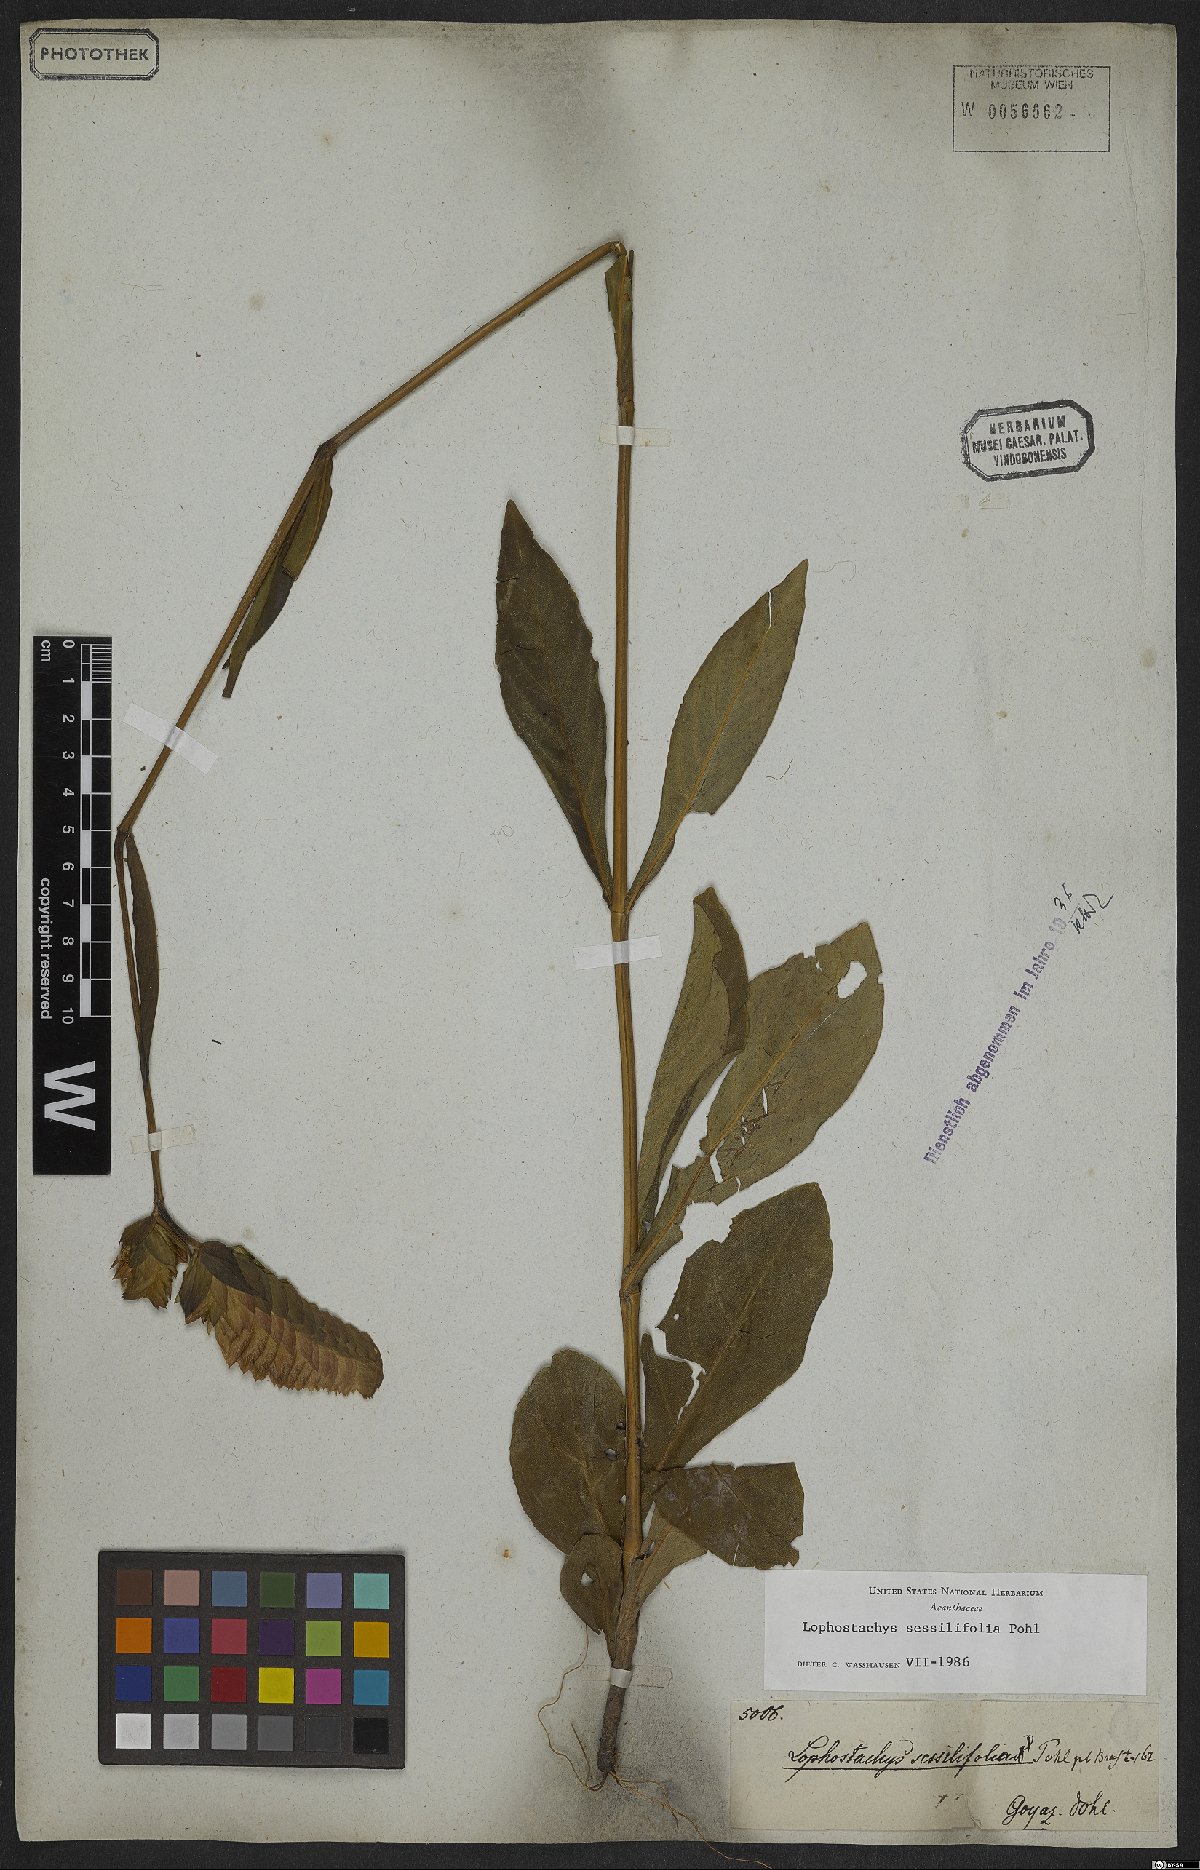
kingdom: Plantae
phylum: Tracheophyta
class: Magnoliopsida
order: Lamiales
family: Acanthaceae
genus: Lepidagathis
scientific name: Lepidagathis sessilifolia
